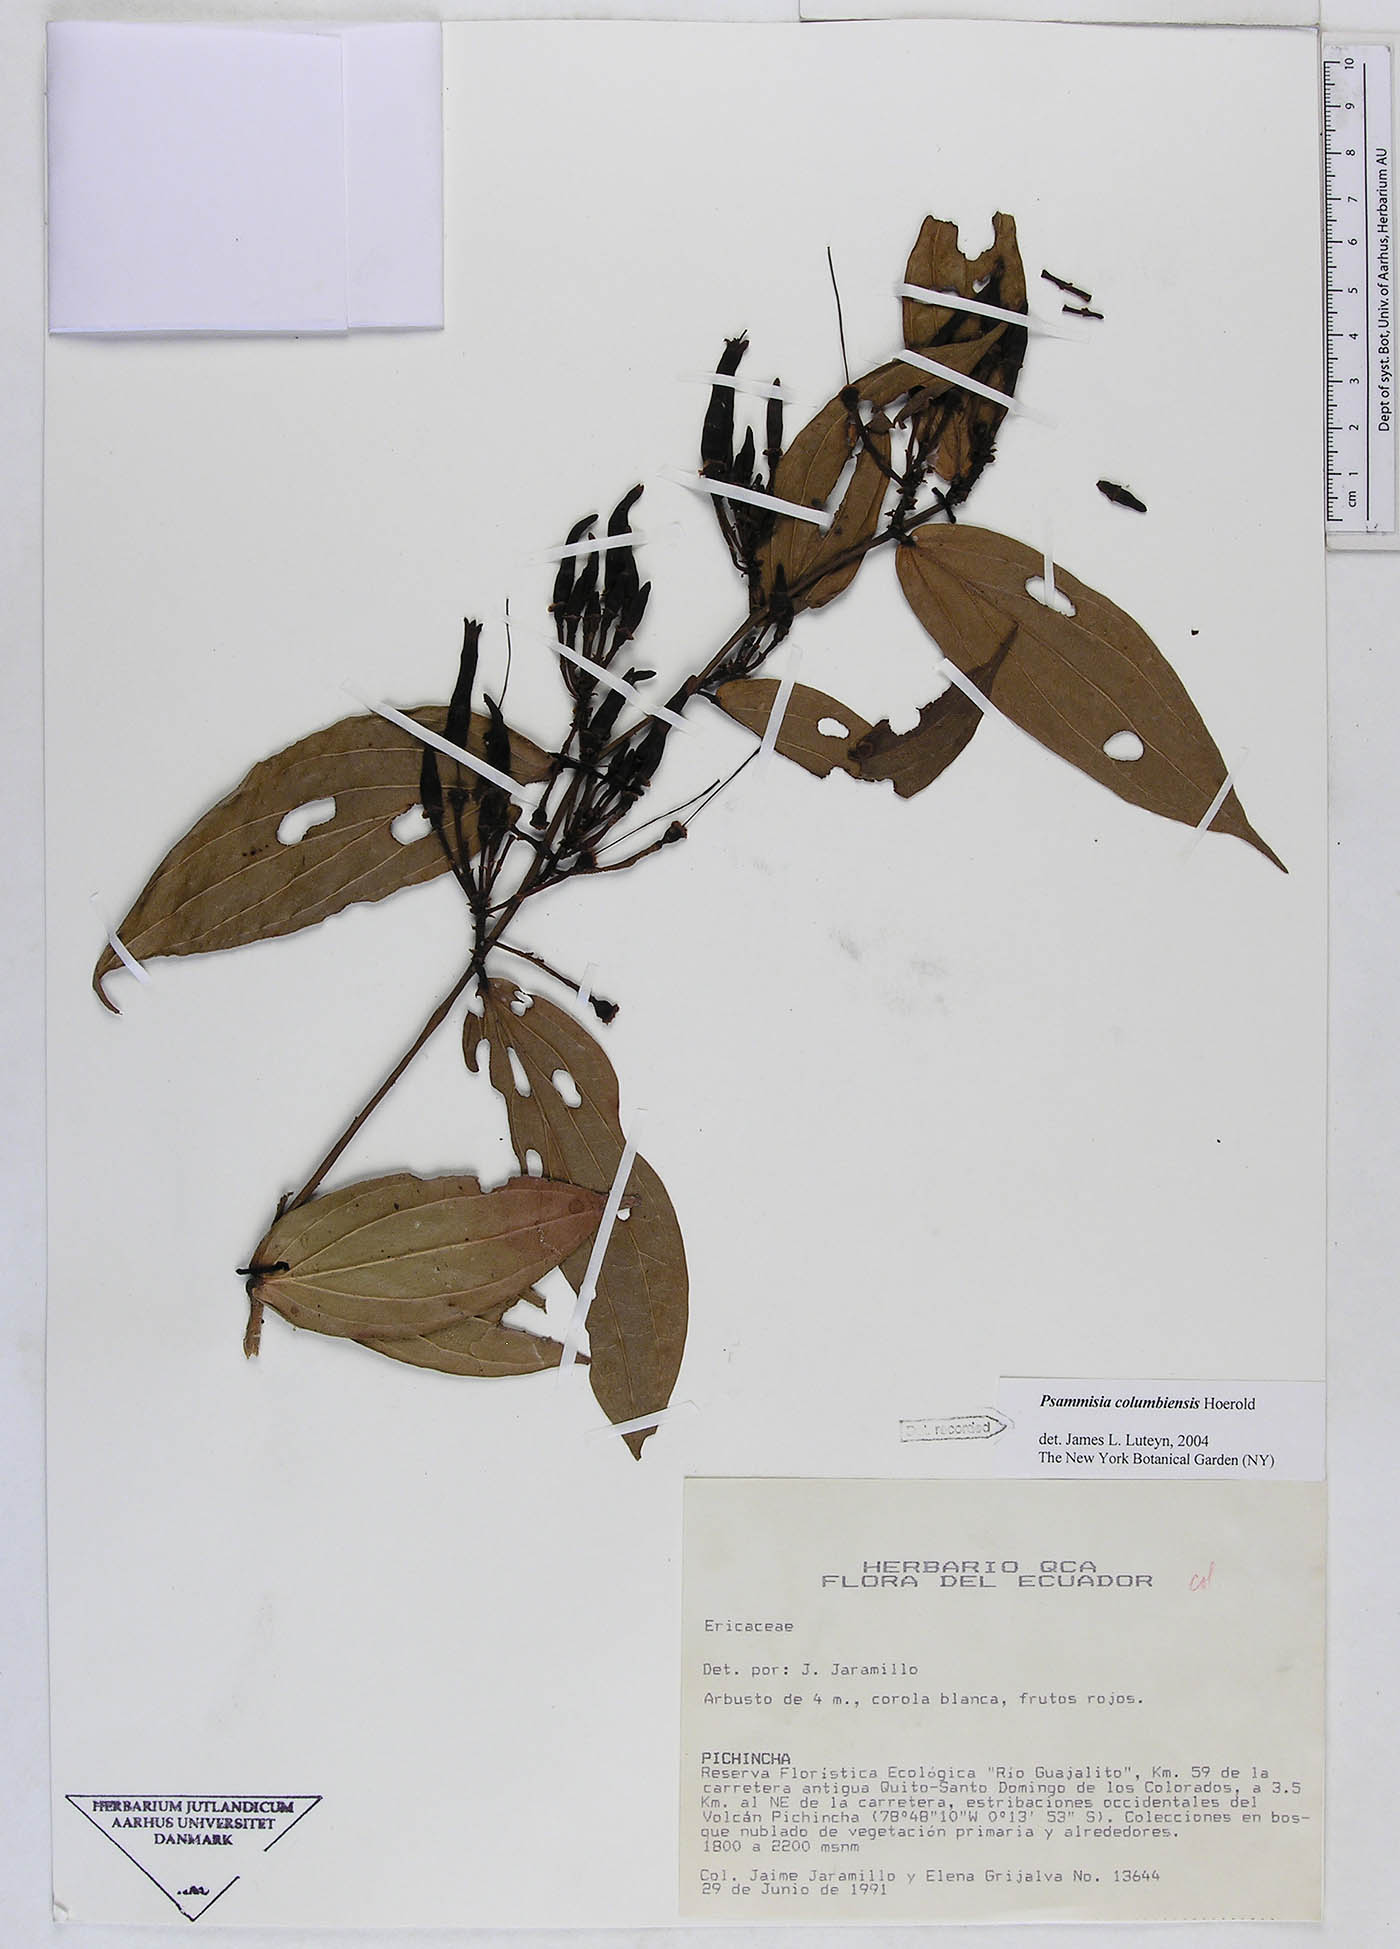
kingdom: Plantae
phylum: Tracheophyta
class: Magnoliopsida
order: Ericales
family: Ericaceae
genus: Psammisia
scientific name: Psammisia columbiensis
